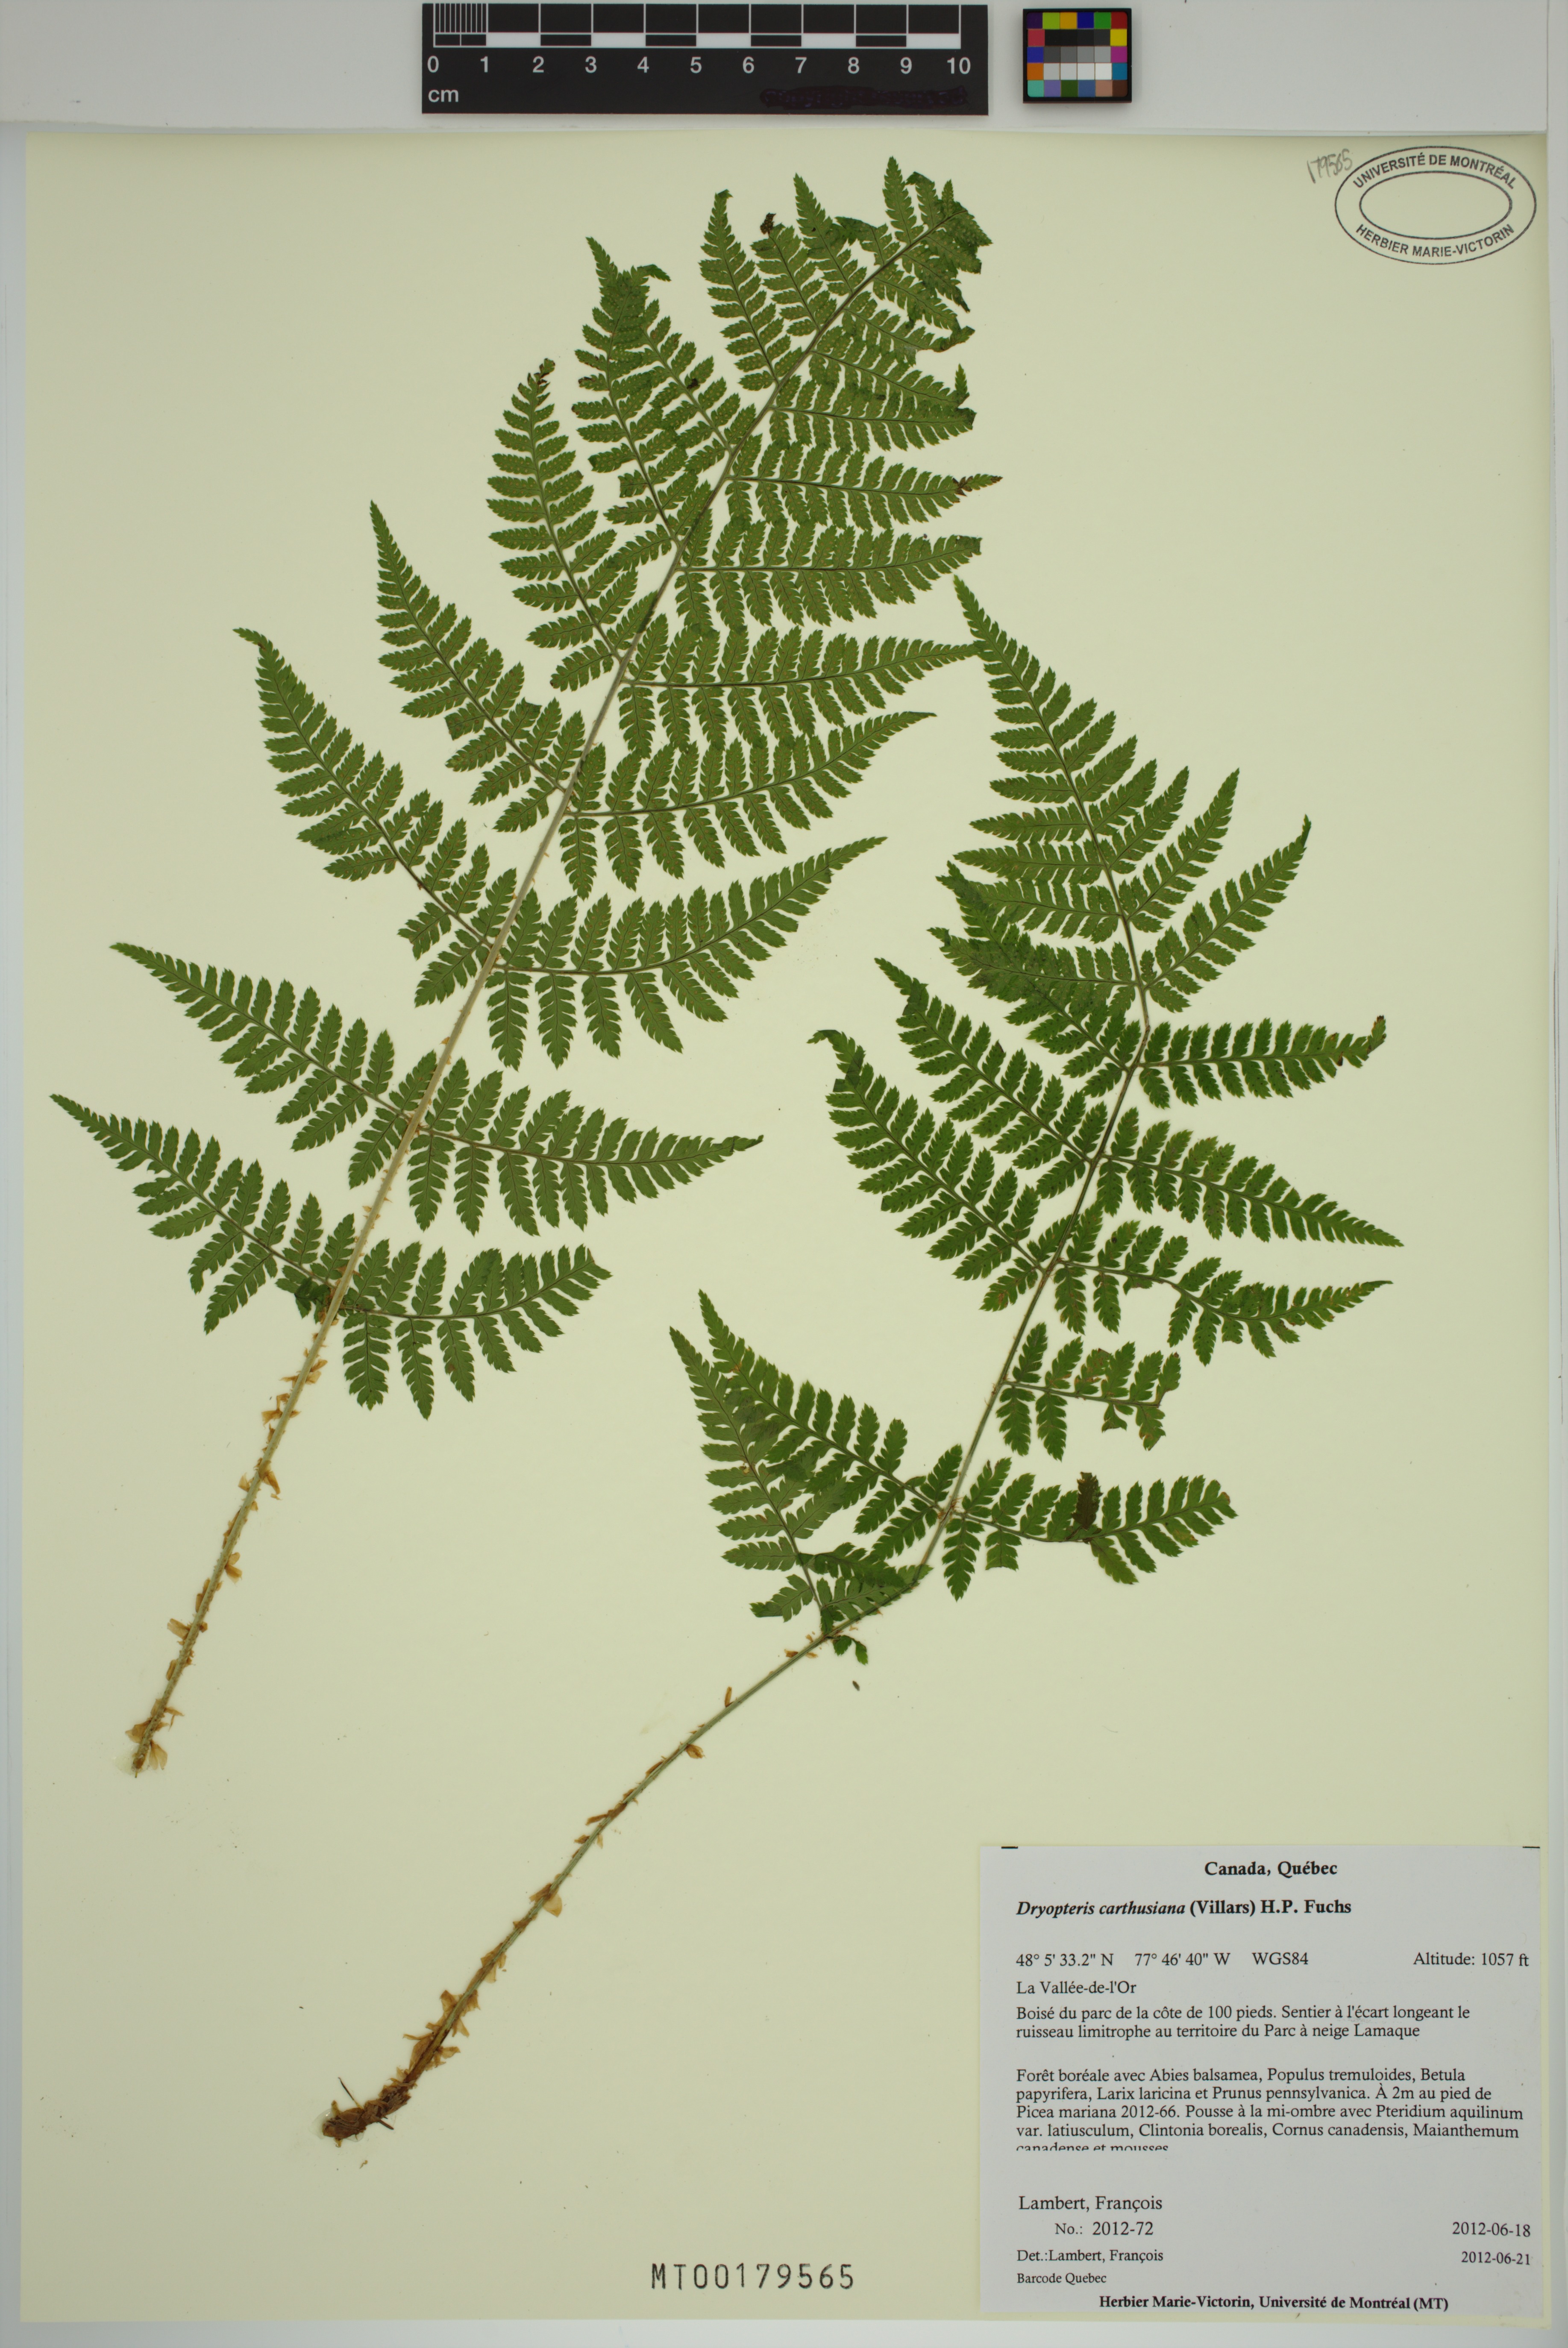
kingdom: Plantae
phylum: Tracheophyta
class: Polypodiopsida
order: Polypodiales
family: Dryopteridaceae
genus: Dryopteris
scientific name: Dryopteris carthusiana
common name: Narrow buckler-fern
